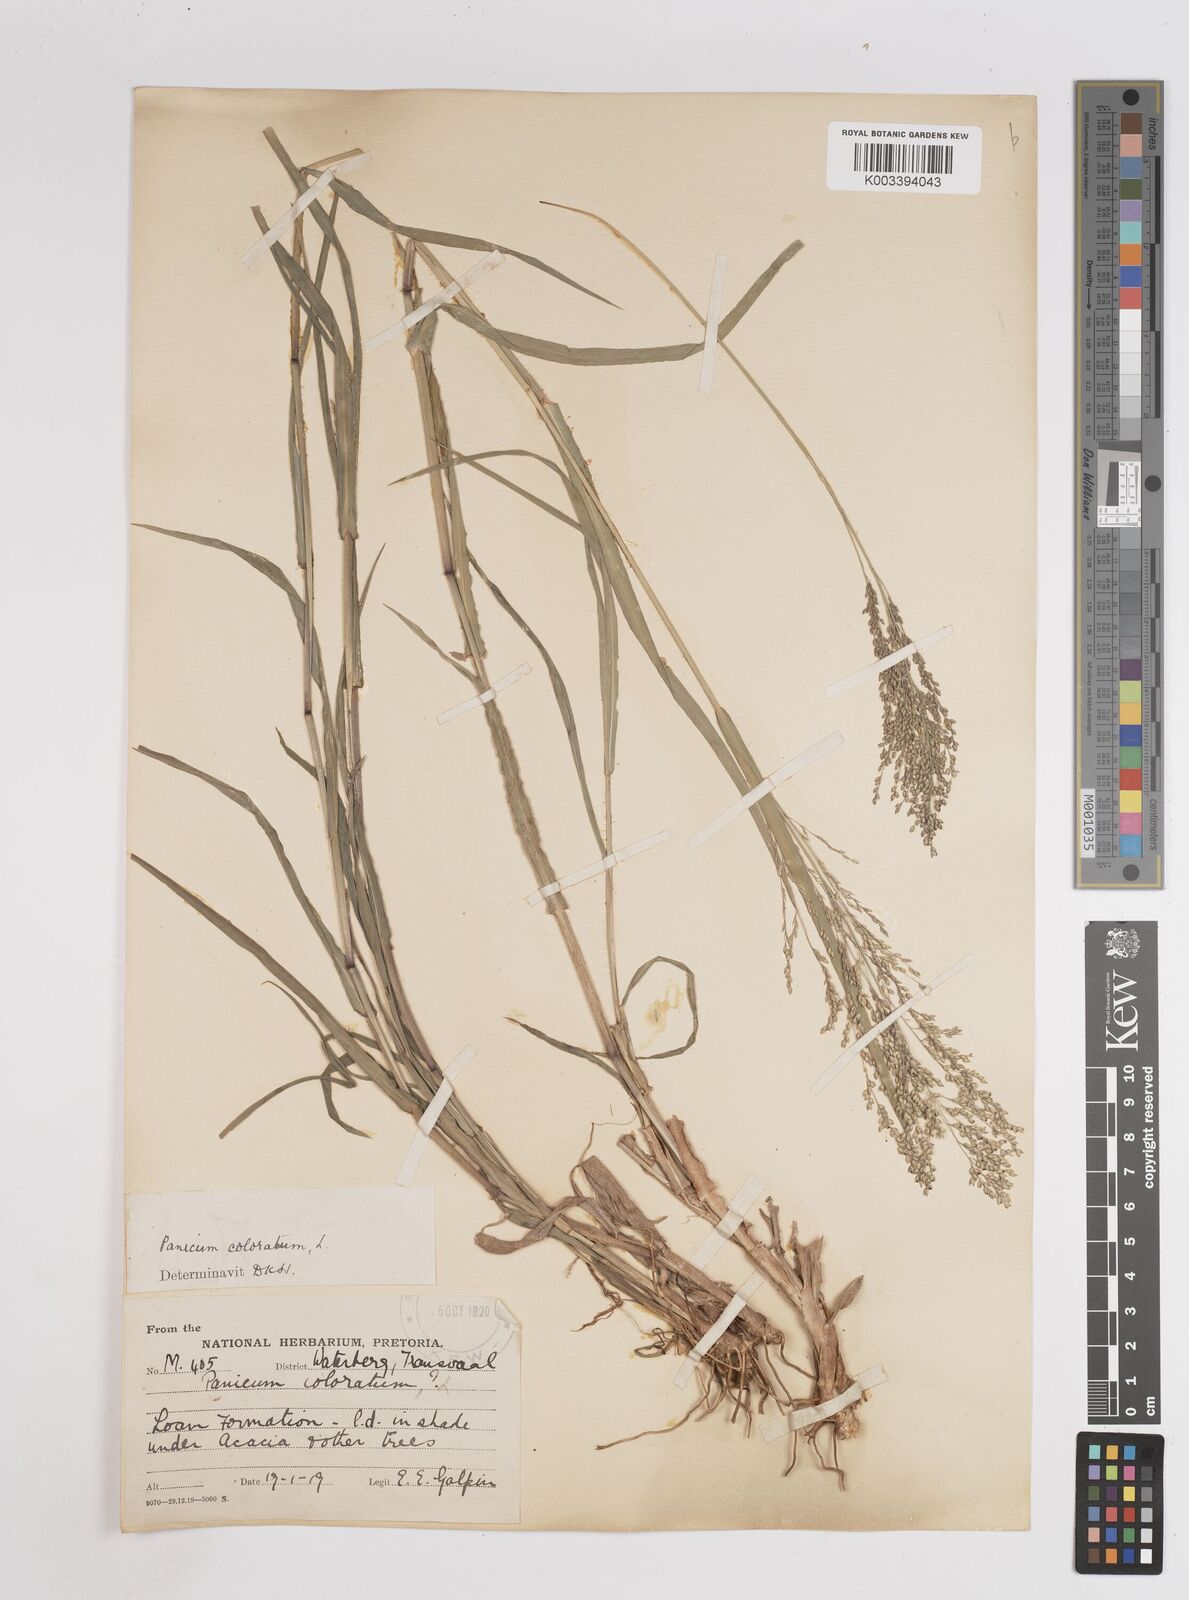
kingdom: Plantae
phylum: Tracheophyta
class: Liliopsida
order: Poales
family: Poaceae
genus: Panicum
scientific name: Panicum coloratum
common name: Kleingrass
